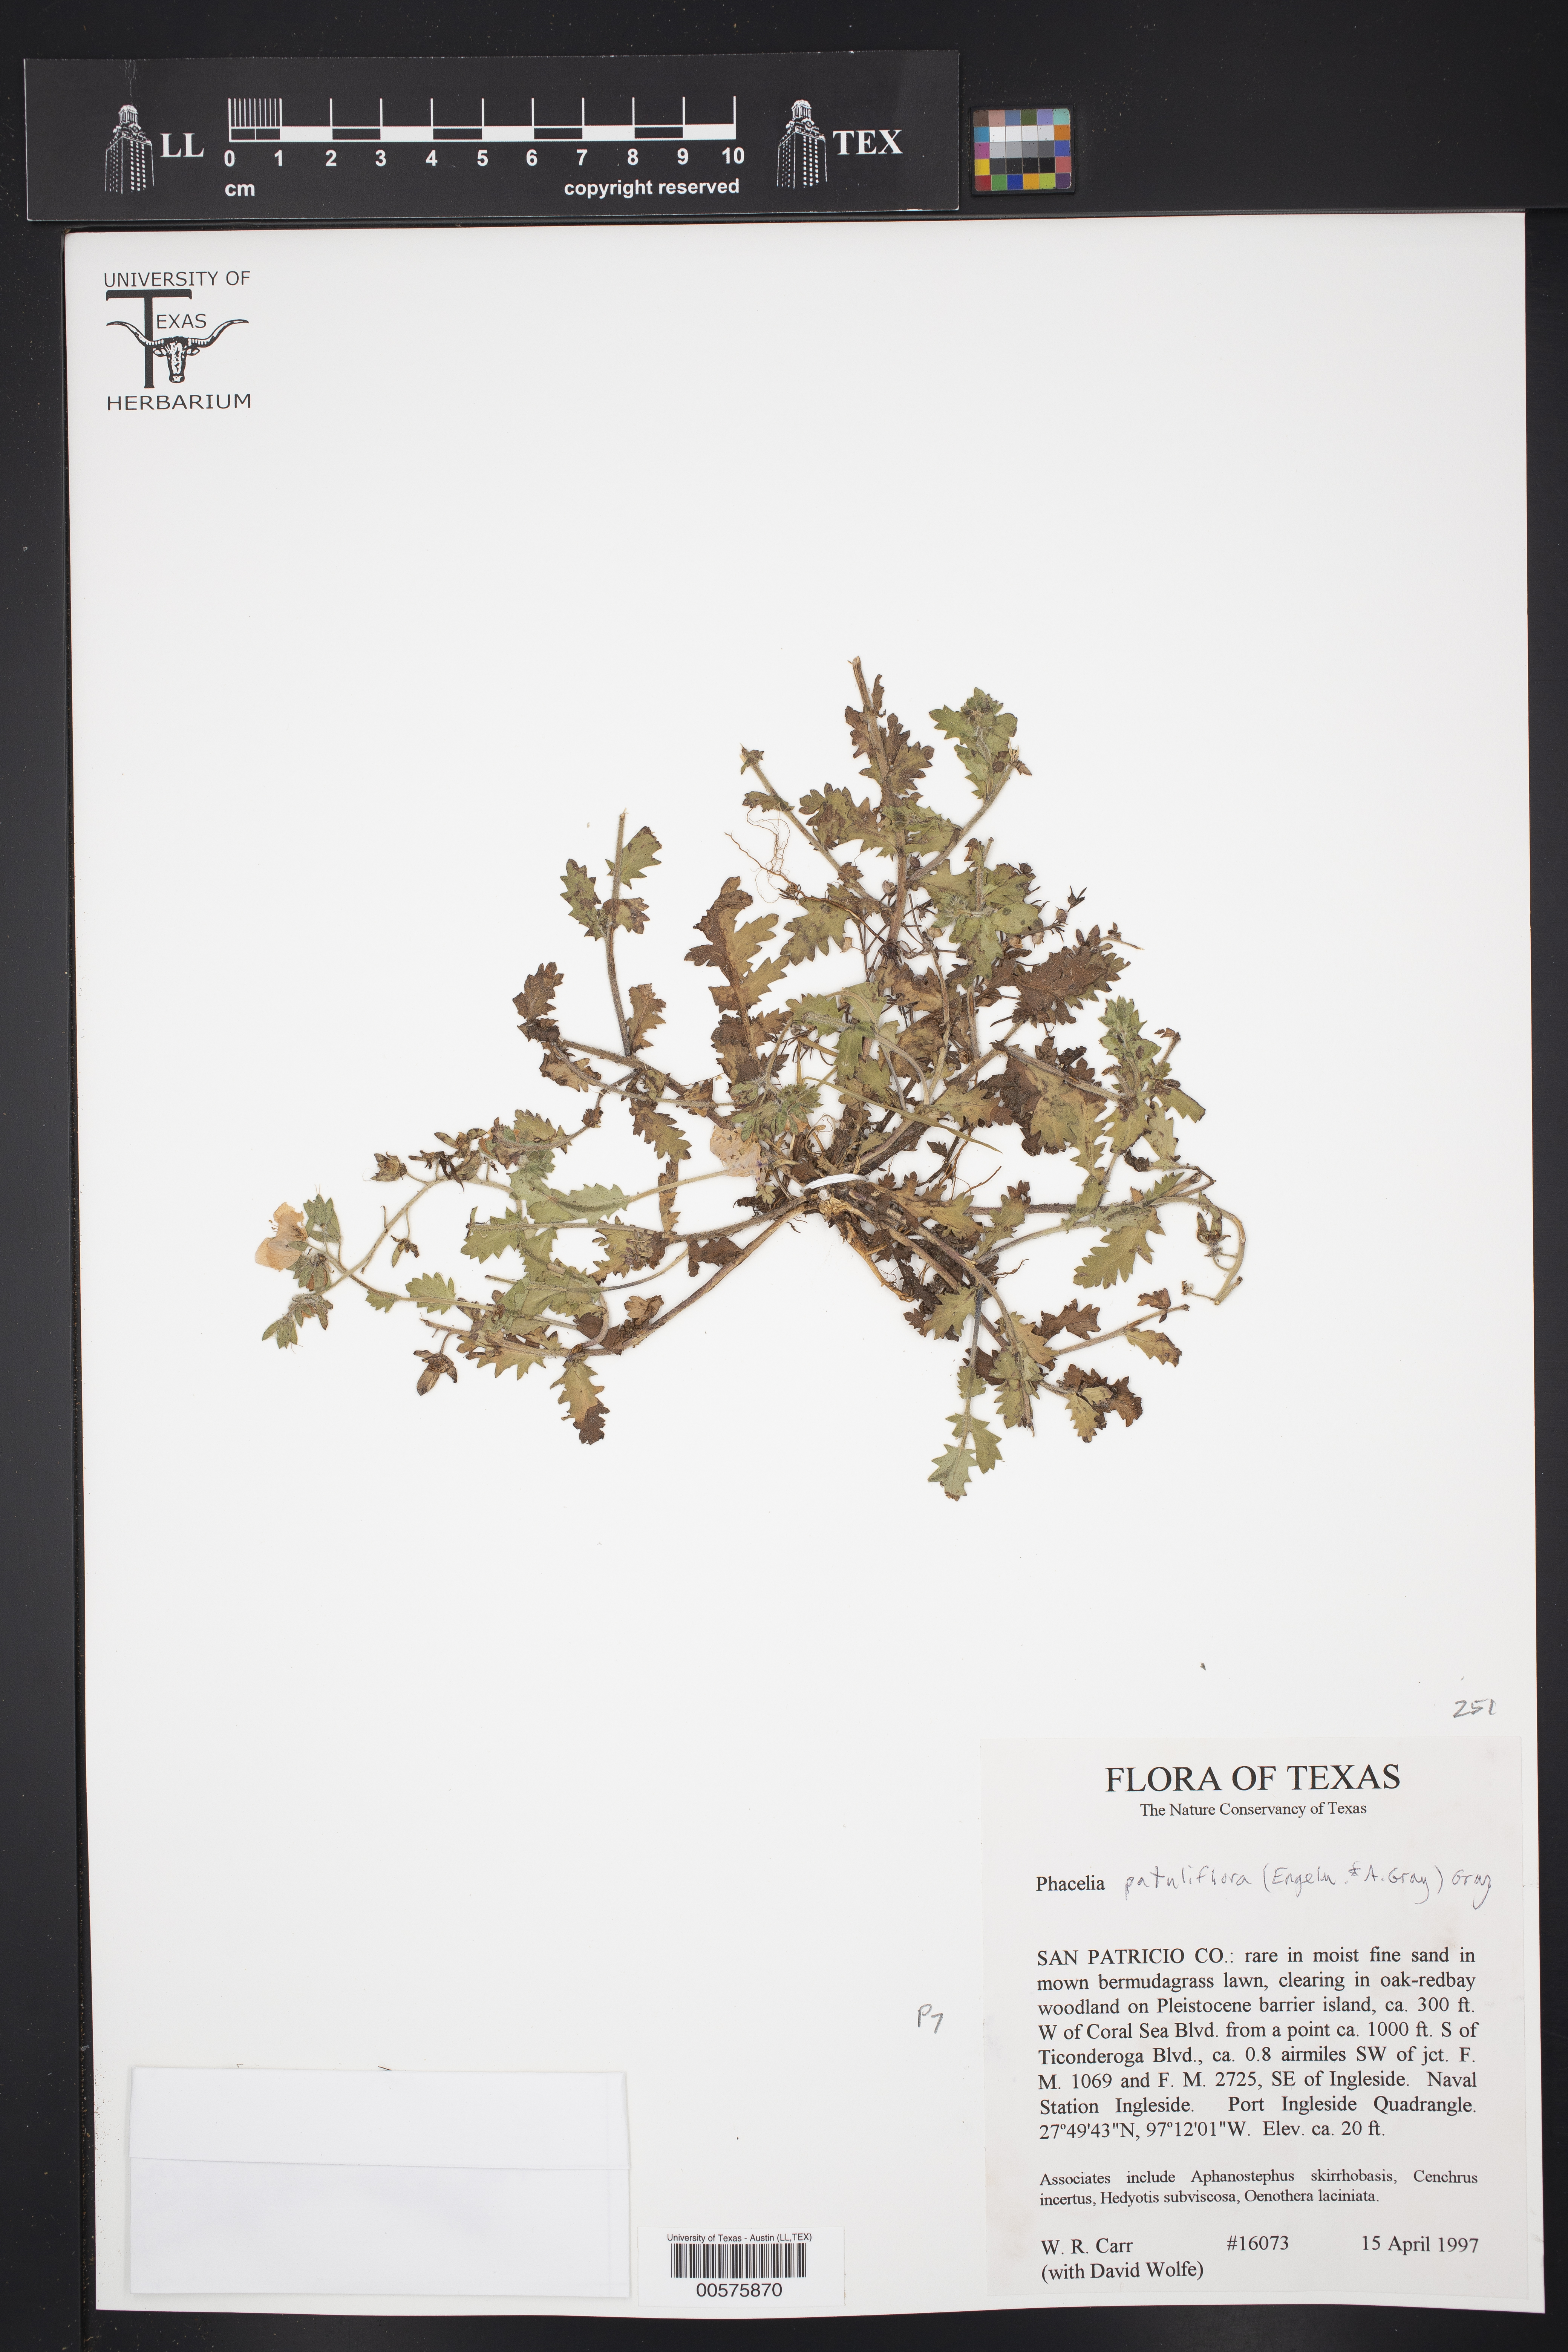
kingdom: Plantae
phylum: Tracheophyta
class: Magnoliopsida
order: Boraginales
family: Hydrophyllaceae
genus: Phacelia
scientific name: Phacelia patuliflora
